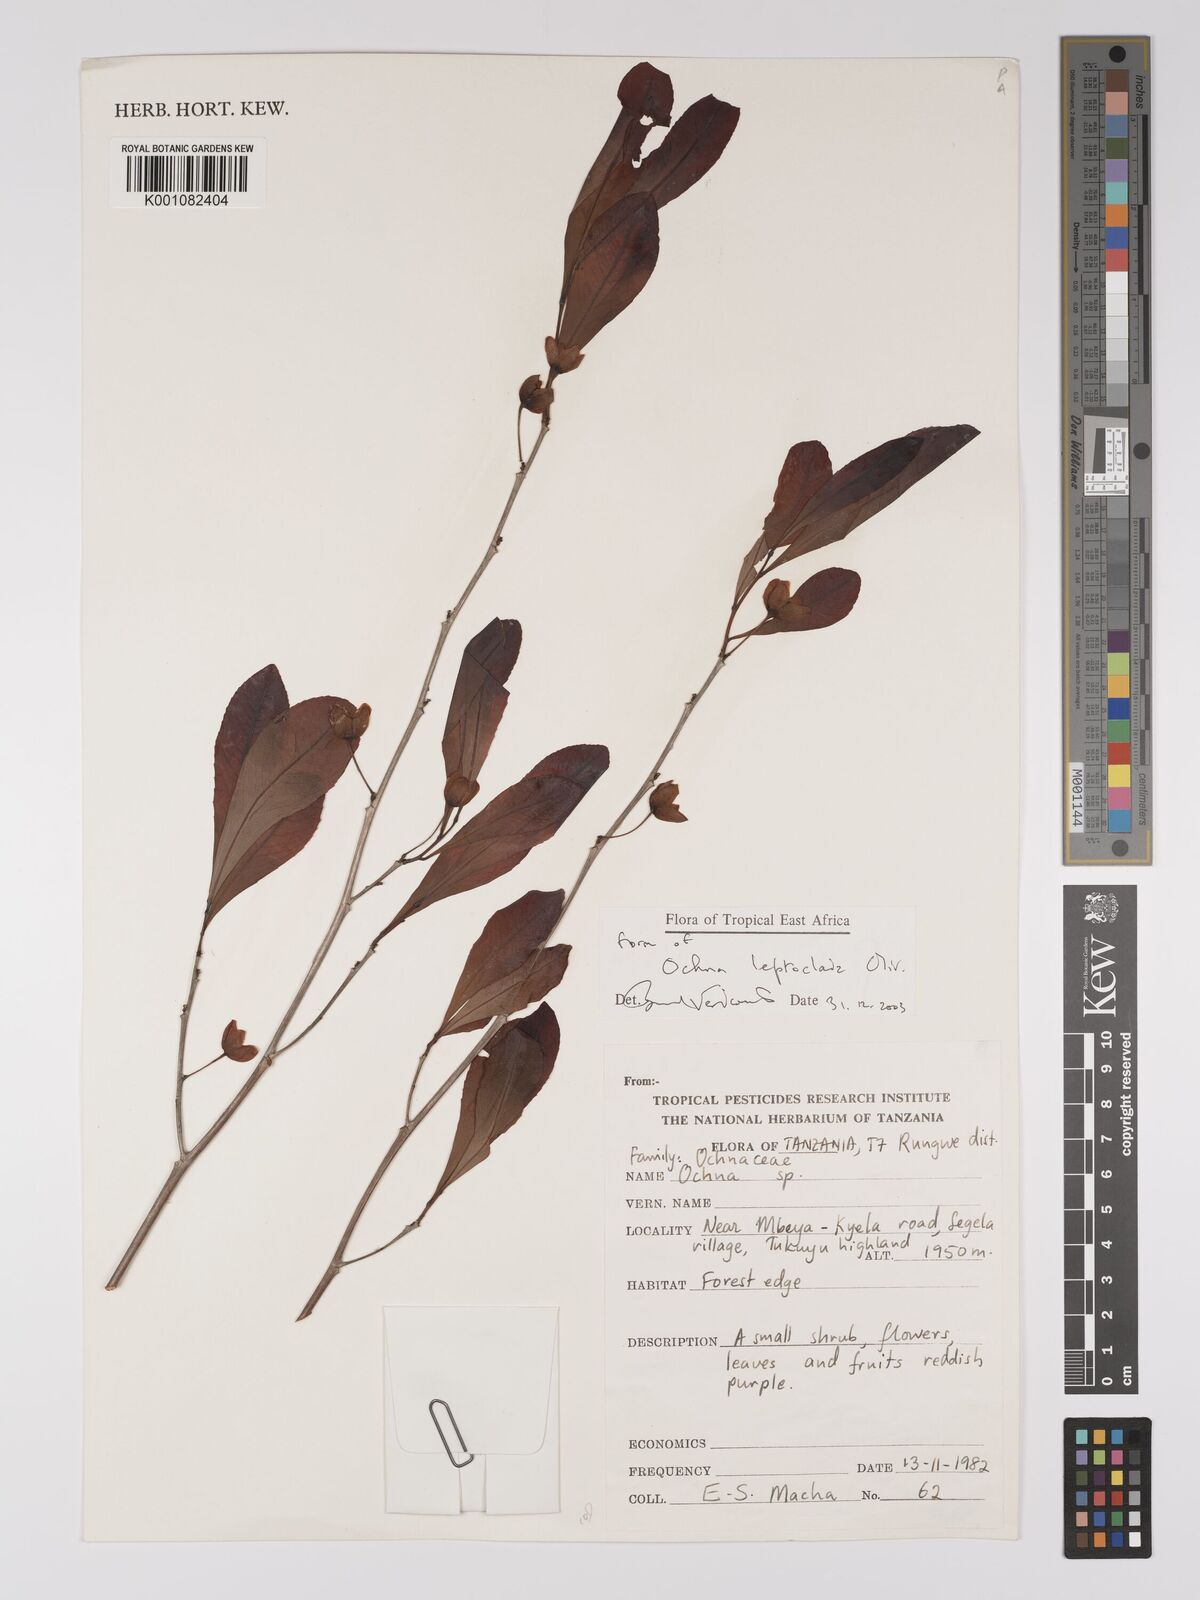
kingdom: Plantae
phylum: Tracheophyta
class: Magnoliopsida
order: Malpighiales
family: Ochnaceae
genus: Ochna
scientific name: Ochna leptoclada
